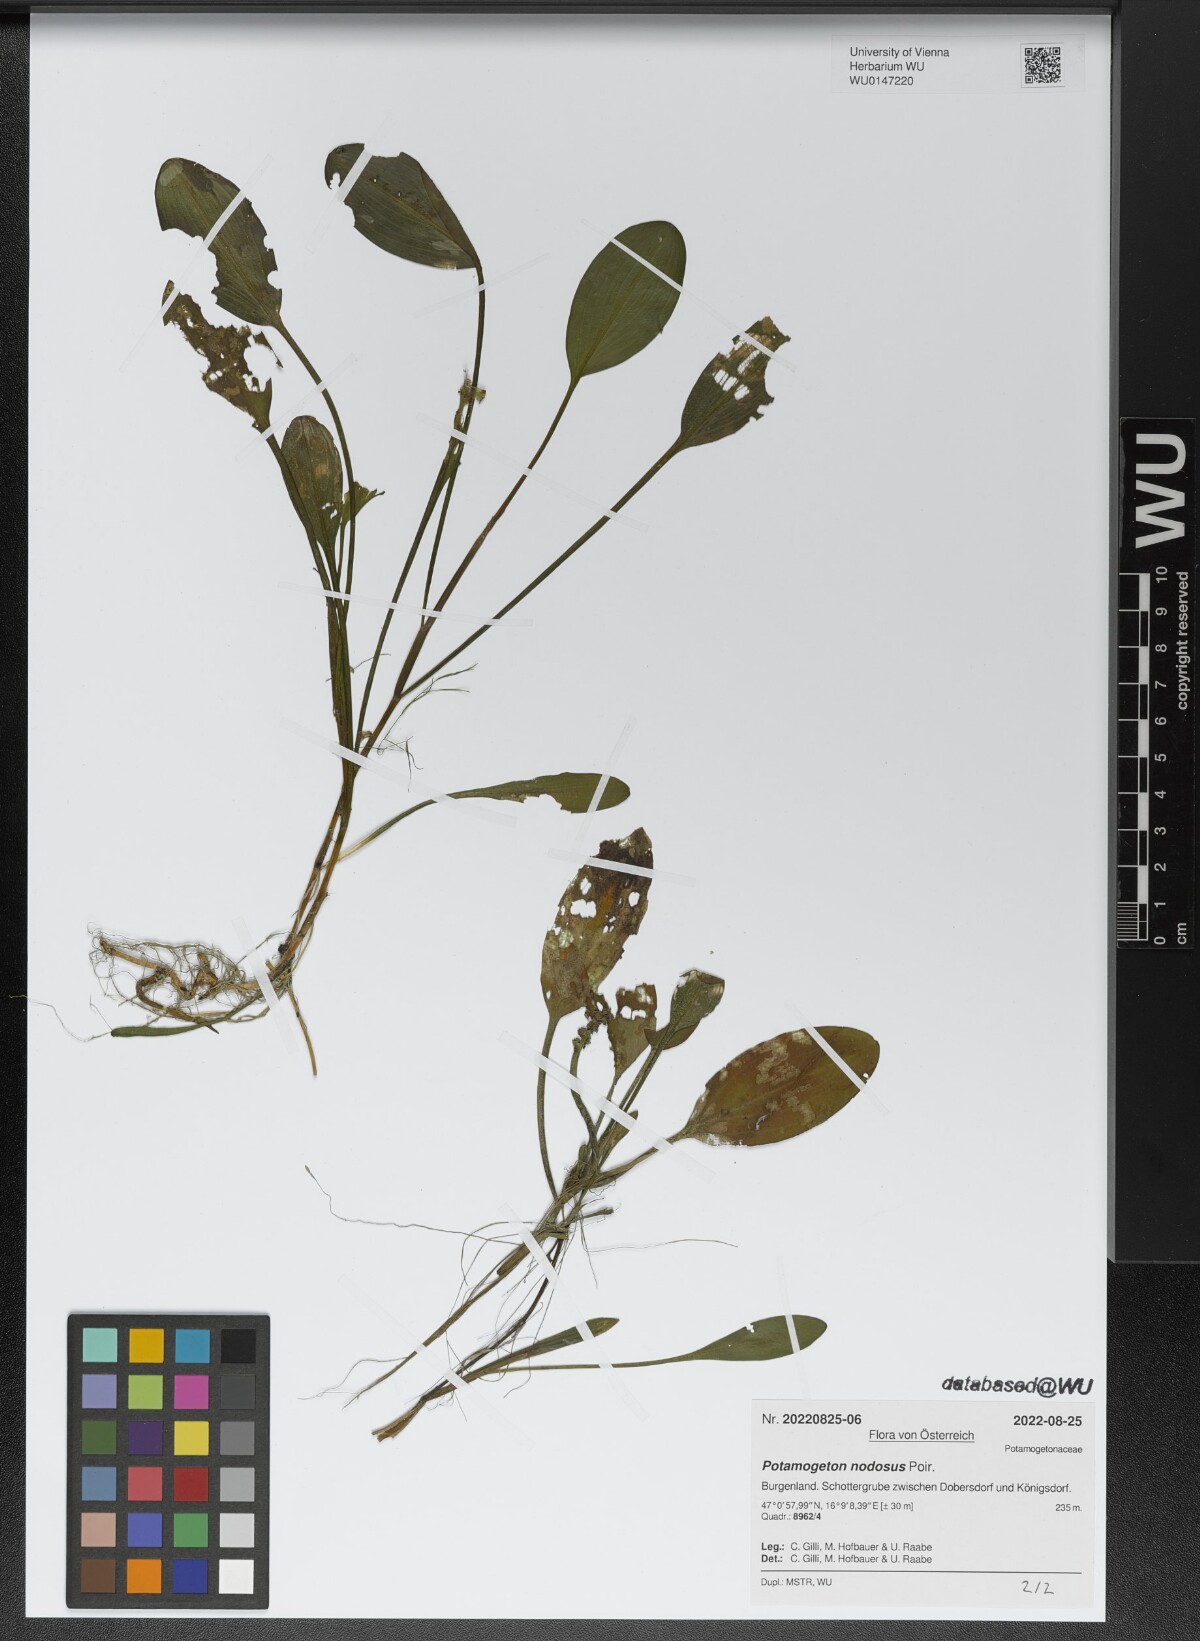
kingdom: Plantae
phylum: Tracheophyta
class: Liliopsida
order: Alismatales
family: Potamogetonaceae
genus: Potamogeton
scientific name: Potamogeton nodosus
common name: Loddon pondweed
